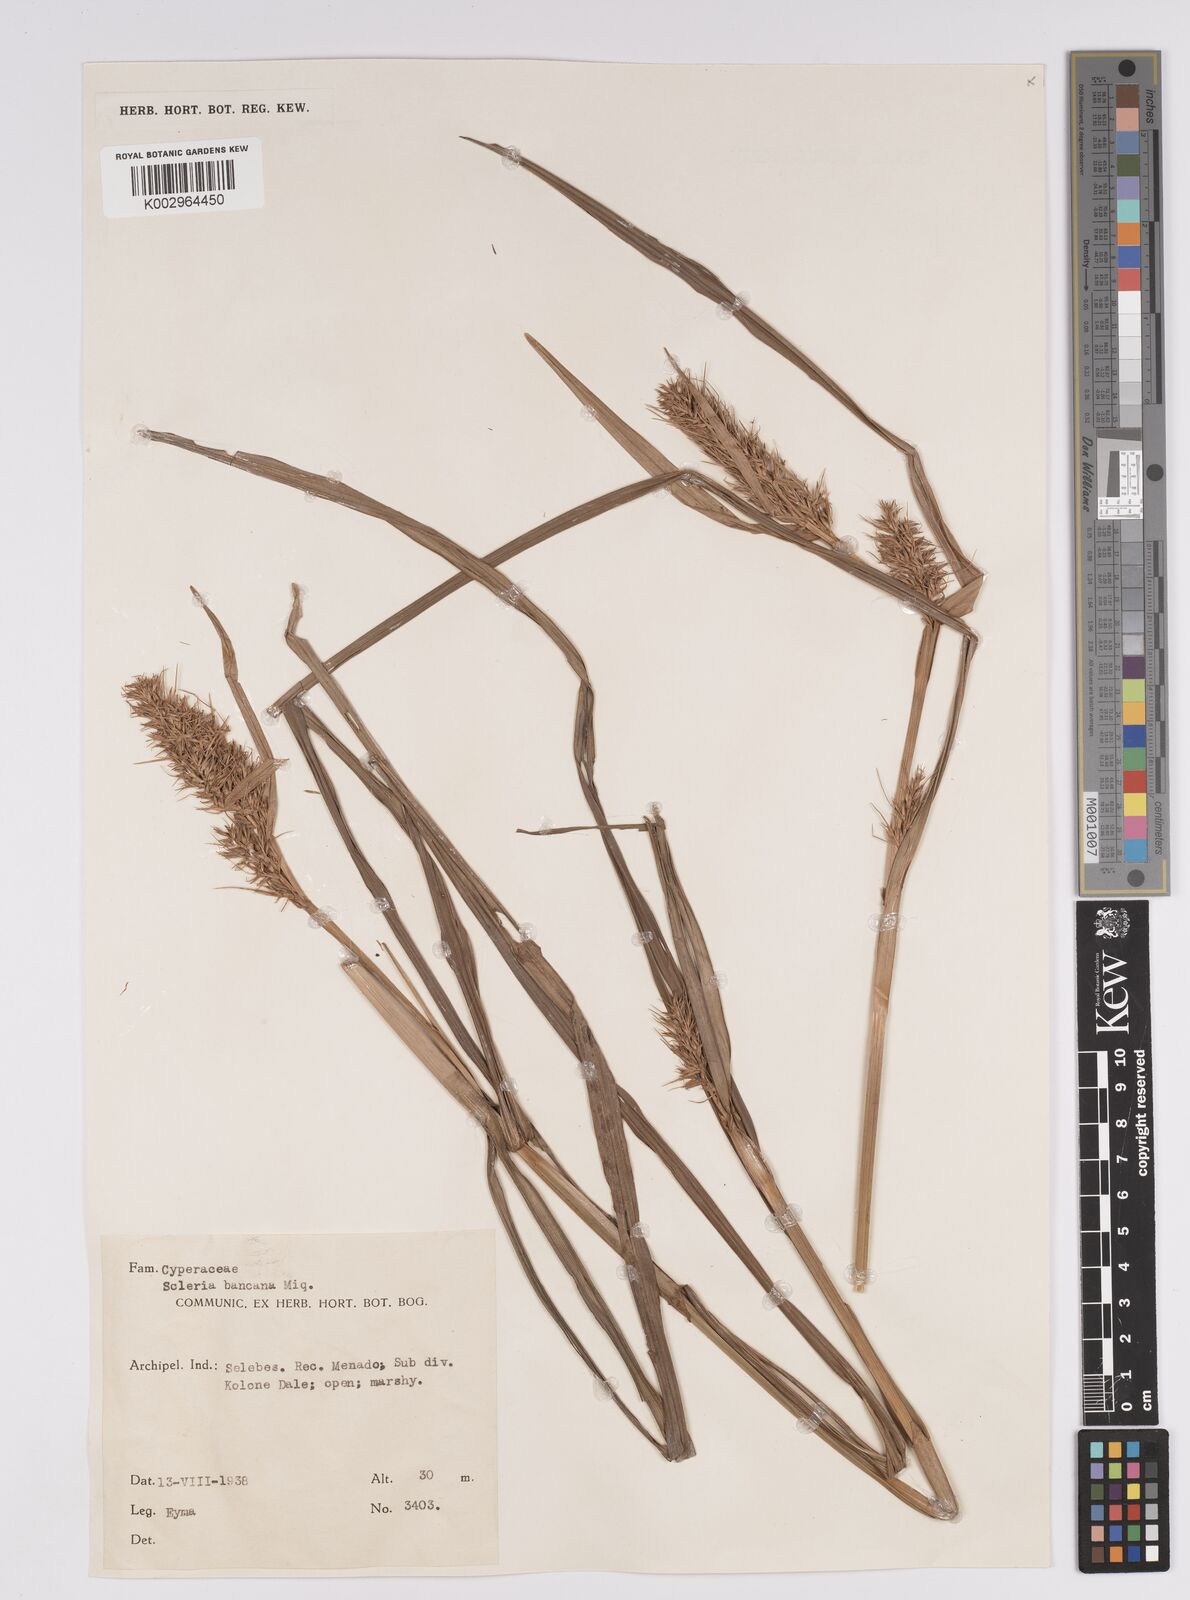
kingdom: Plantae
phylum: Tracheophyta
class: Liliopsida
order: Poales
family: Cyperaceae
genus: Scleria
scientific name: Scleria ciliaris
